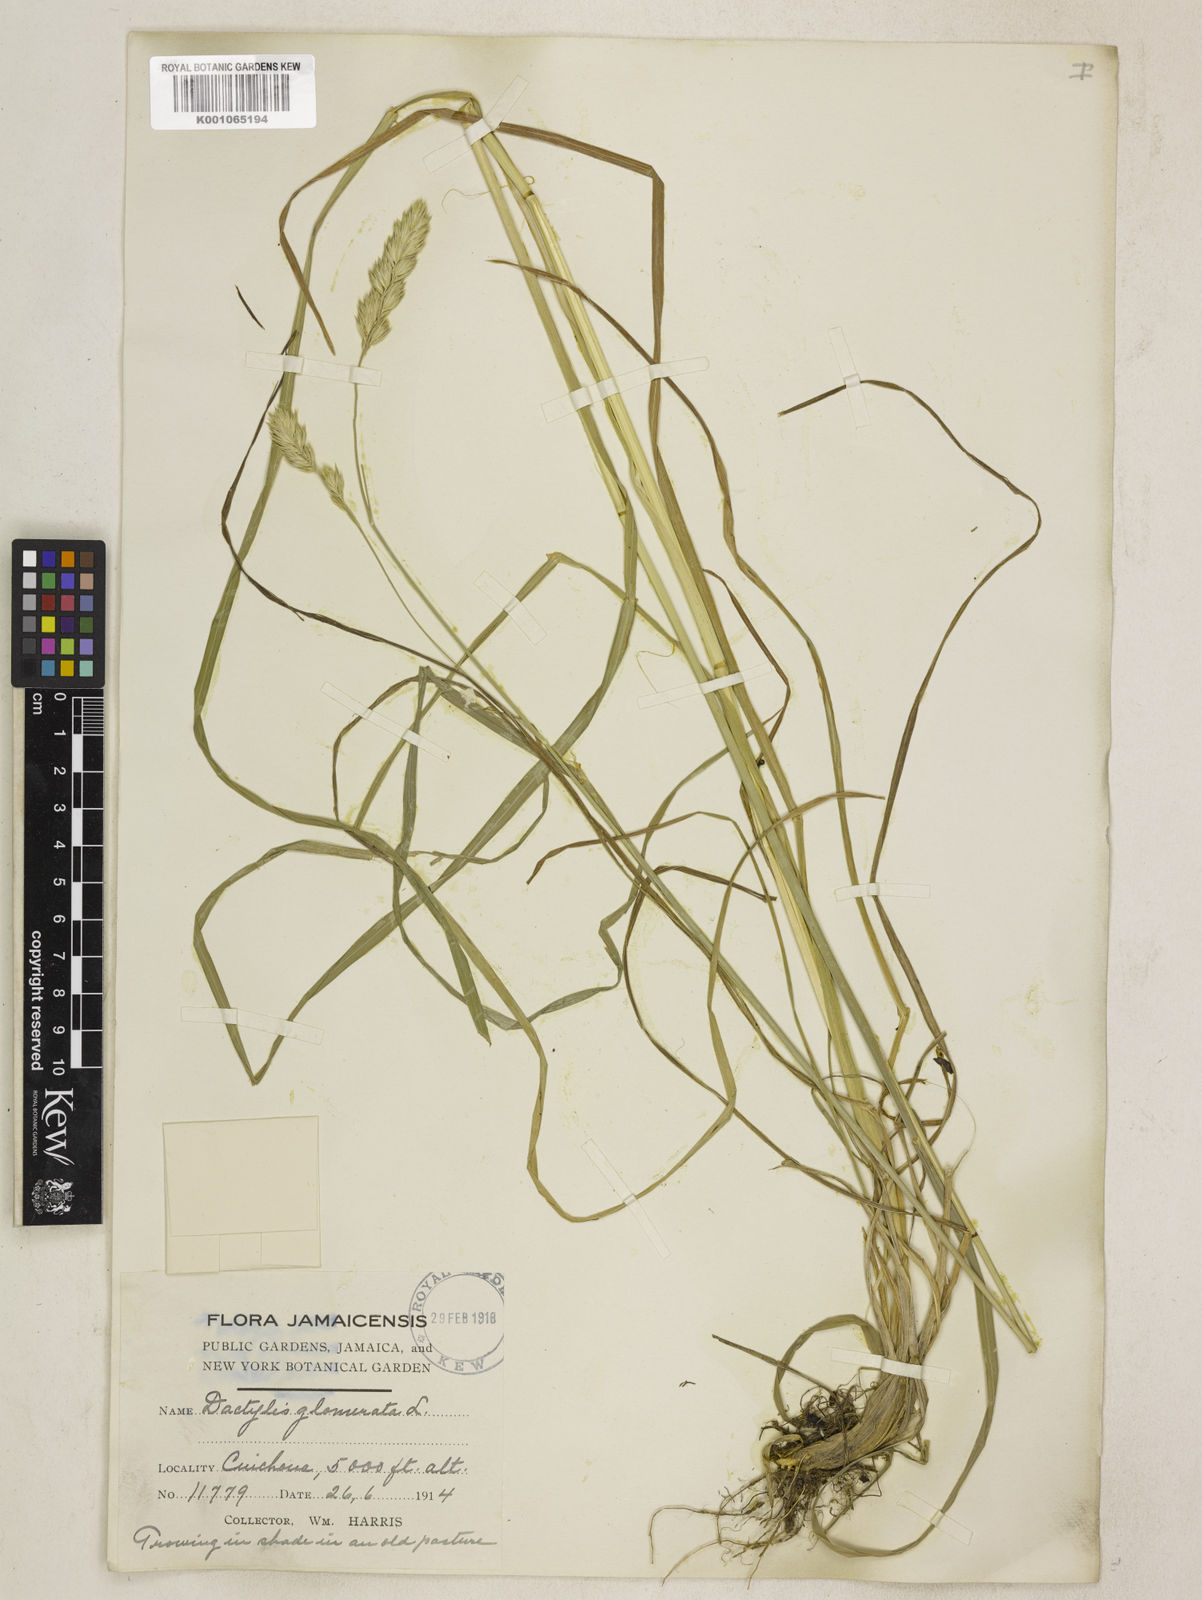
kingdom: Plantae
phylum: Tracheophyta
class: Liliopsida
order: Poales
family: Poaceae
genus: Dactylis
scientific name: Dactylis glomerata
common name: Orchardgrass
